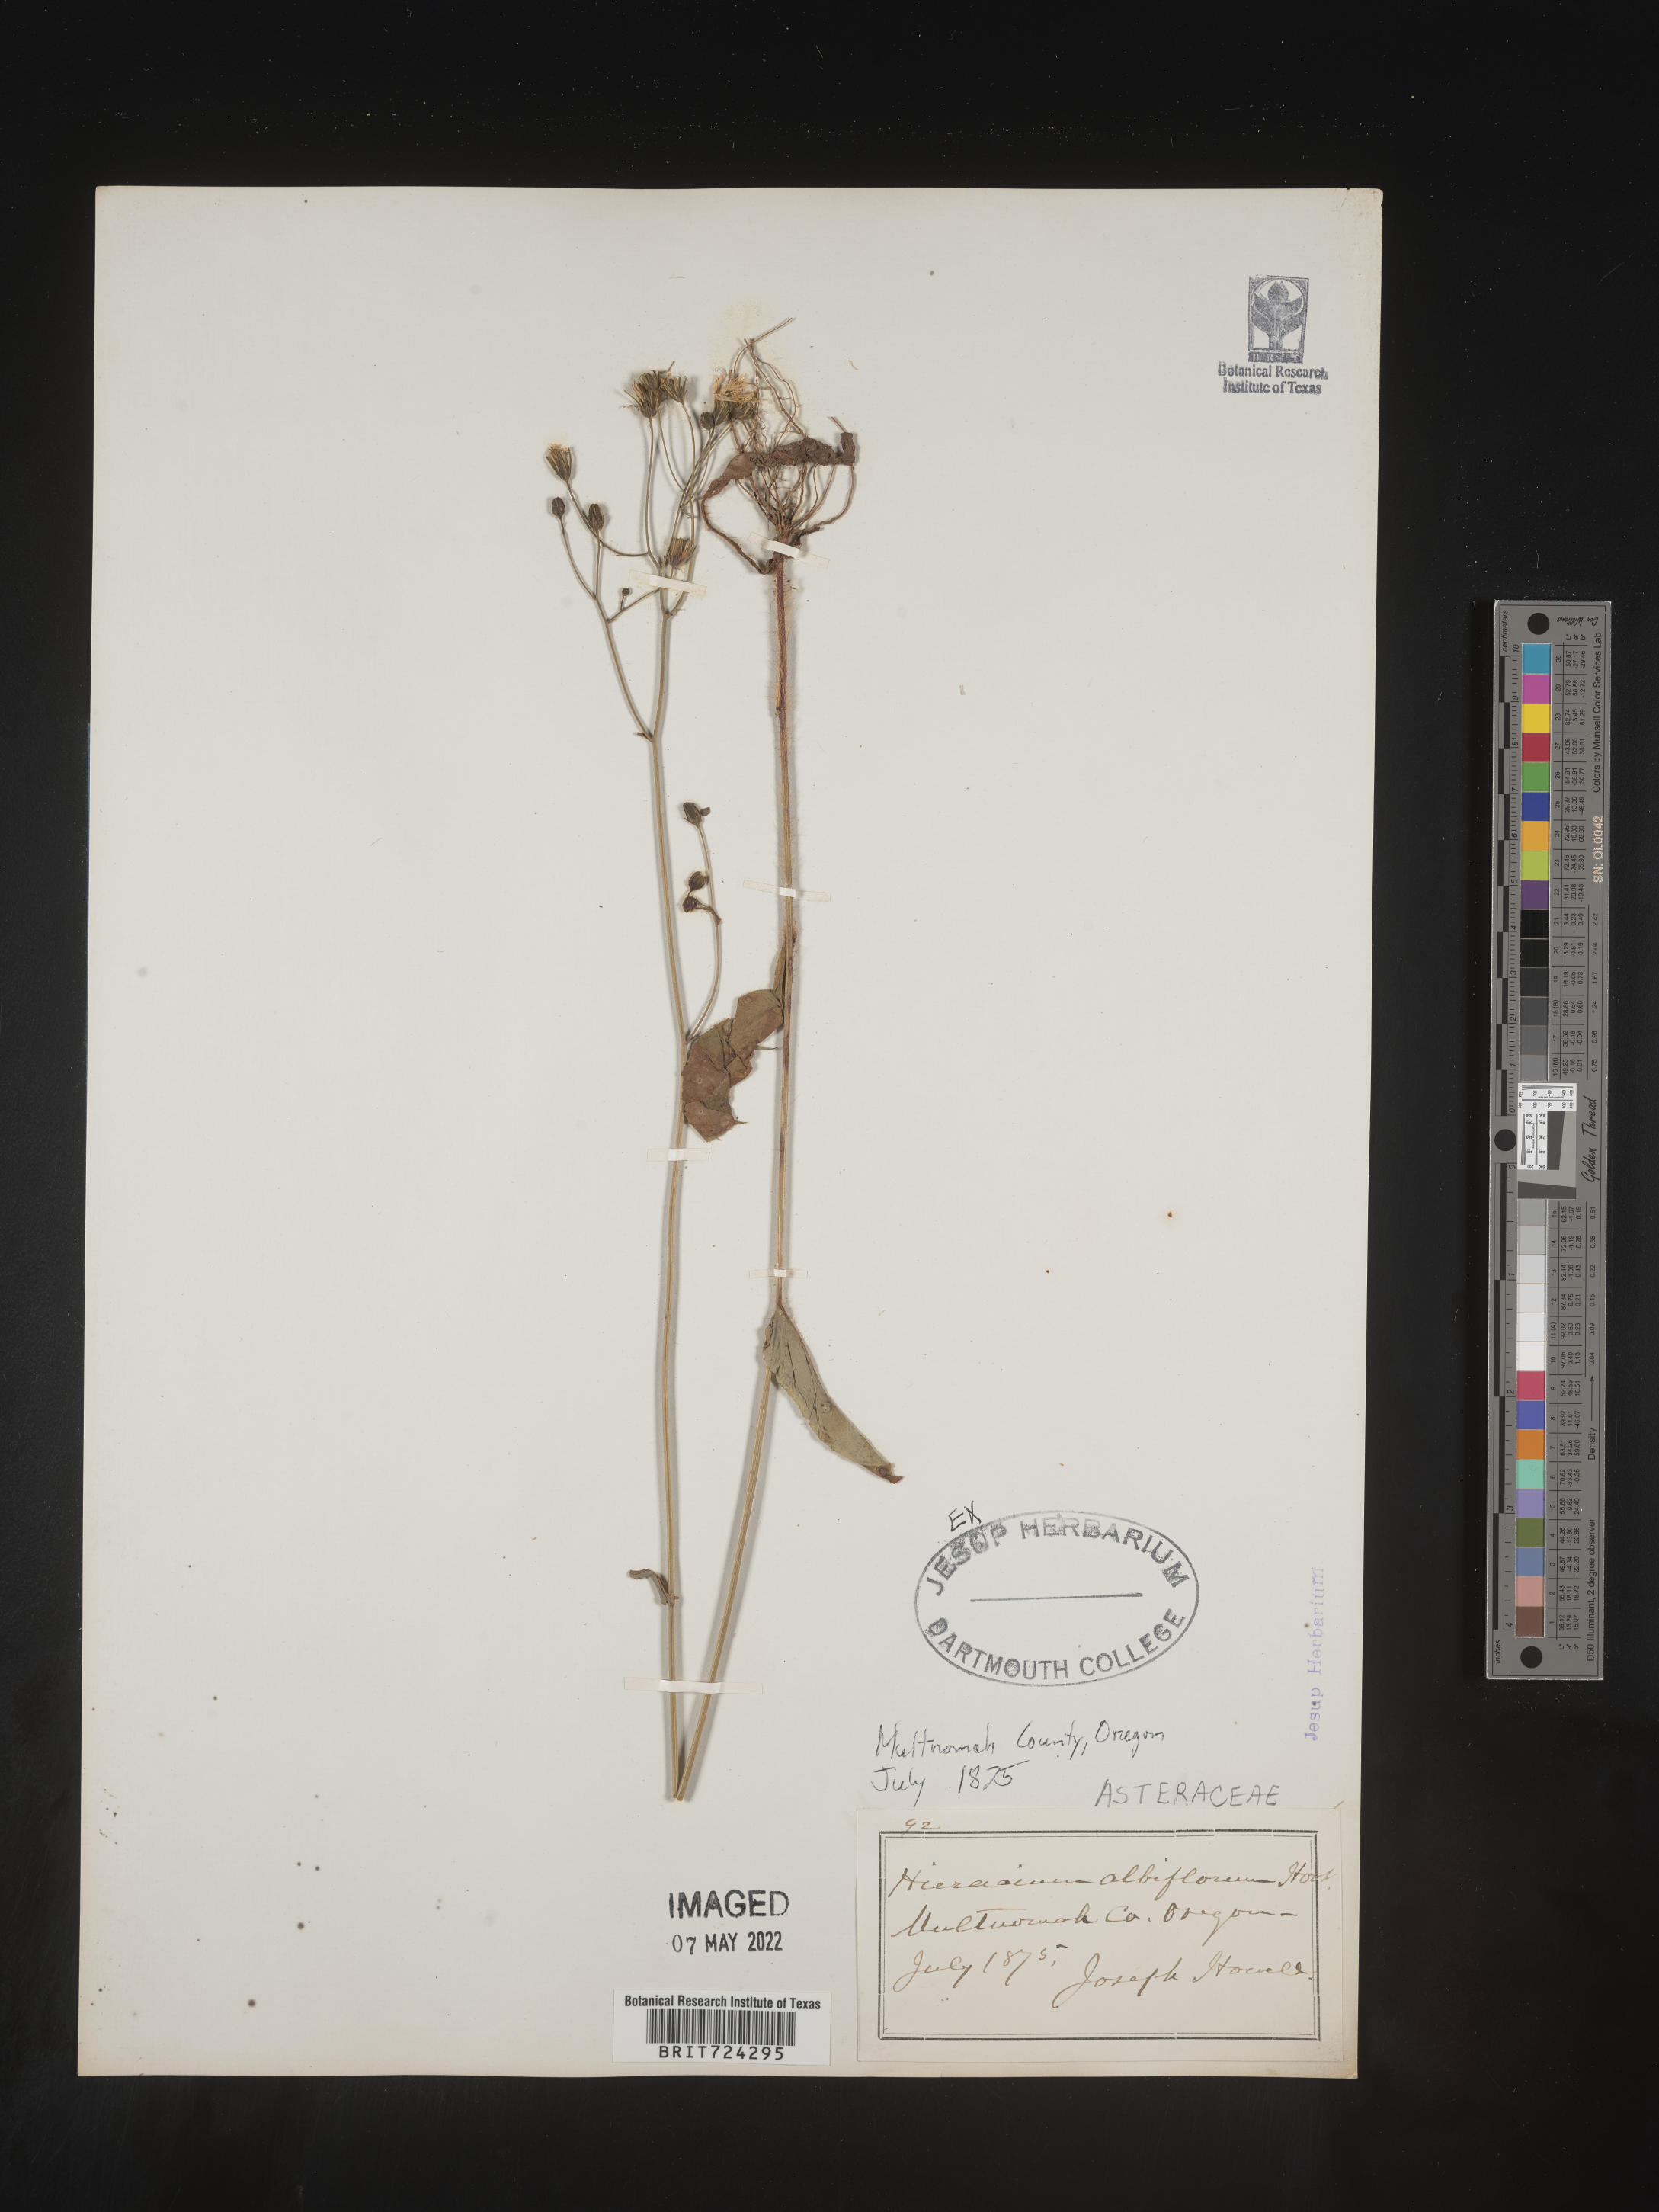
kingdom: Plantae
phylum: Tracheophyta
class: Magnoliopsida
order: Asterales
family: Asteraceae
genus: Hieracium
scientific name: Hieracium albiflorum
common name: White hawkweed
